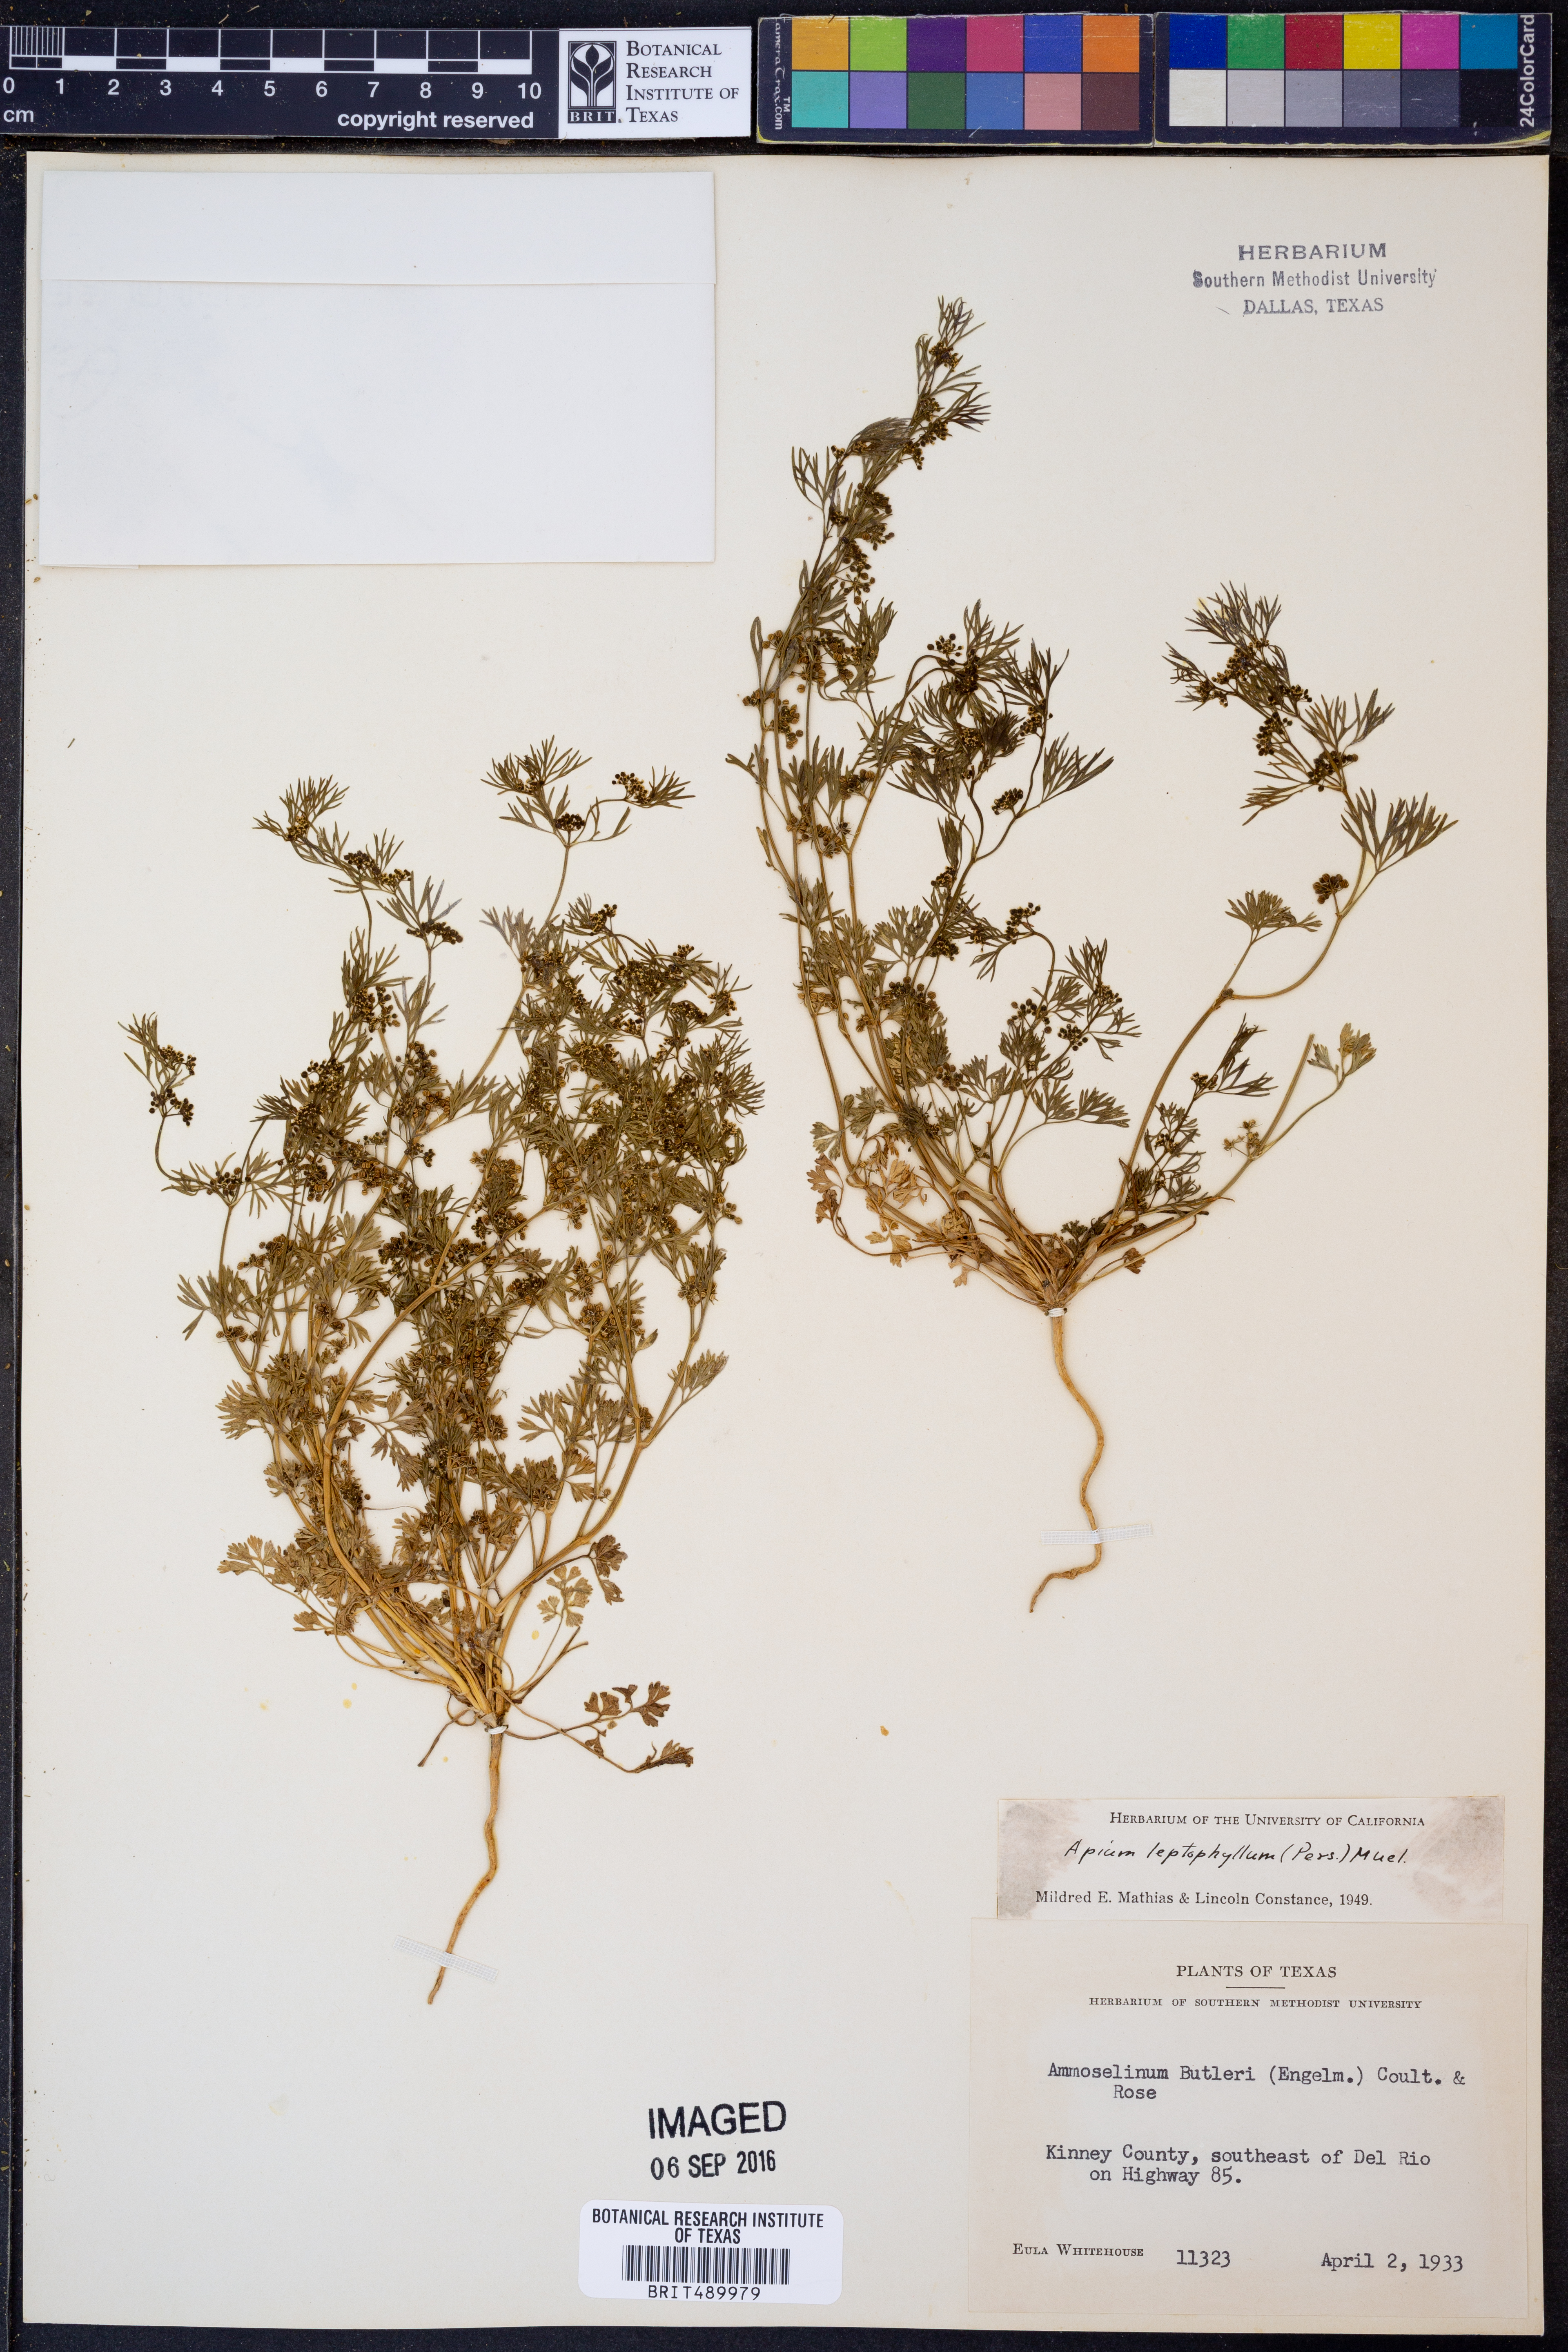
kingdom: Plantae
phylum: Tracheophyta
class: Magnoliopsida
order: Apiales
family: Apiaceae
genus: Cyclospermum
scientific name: Cyclospermum leptophyllum
